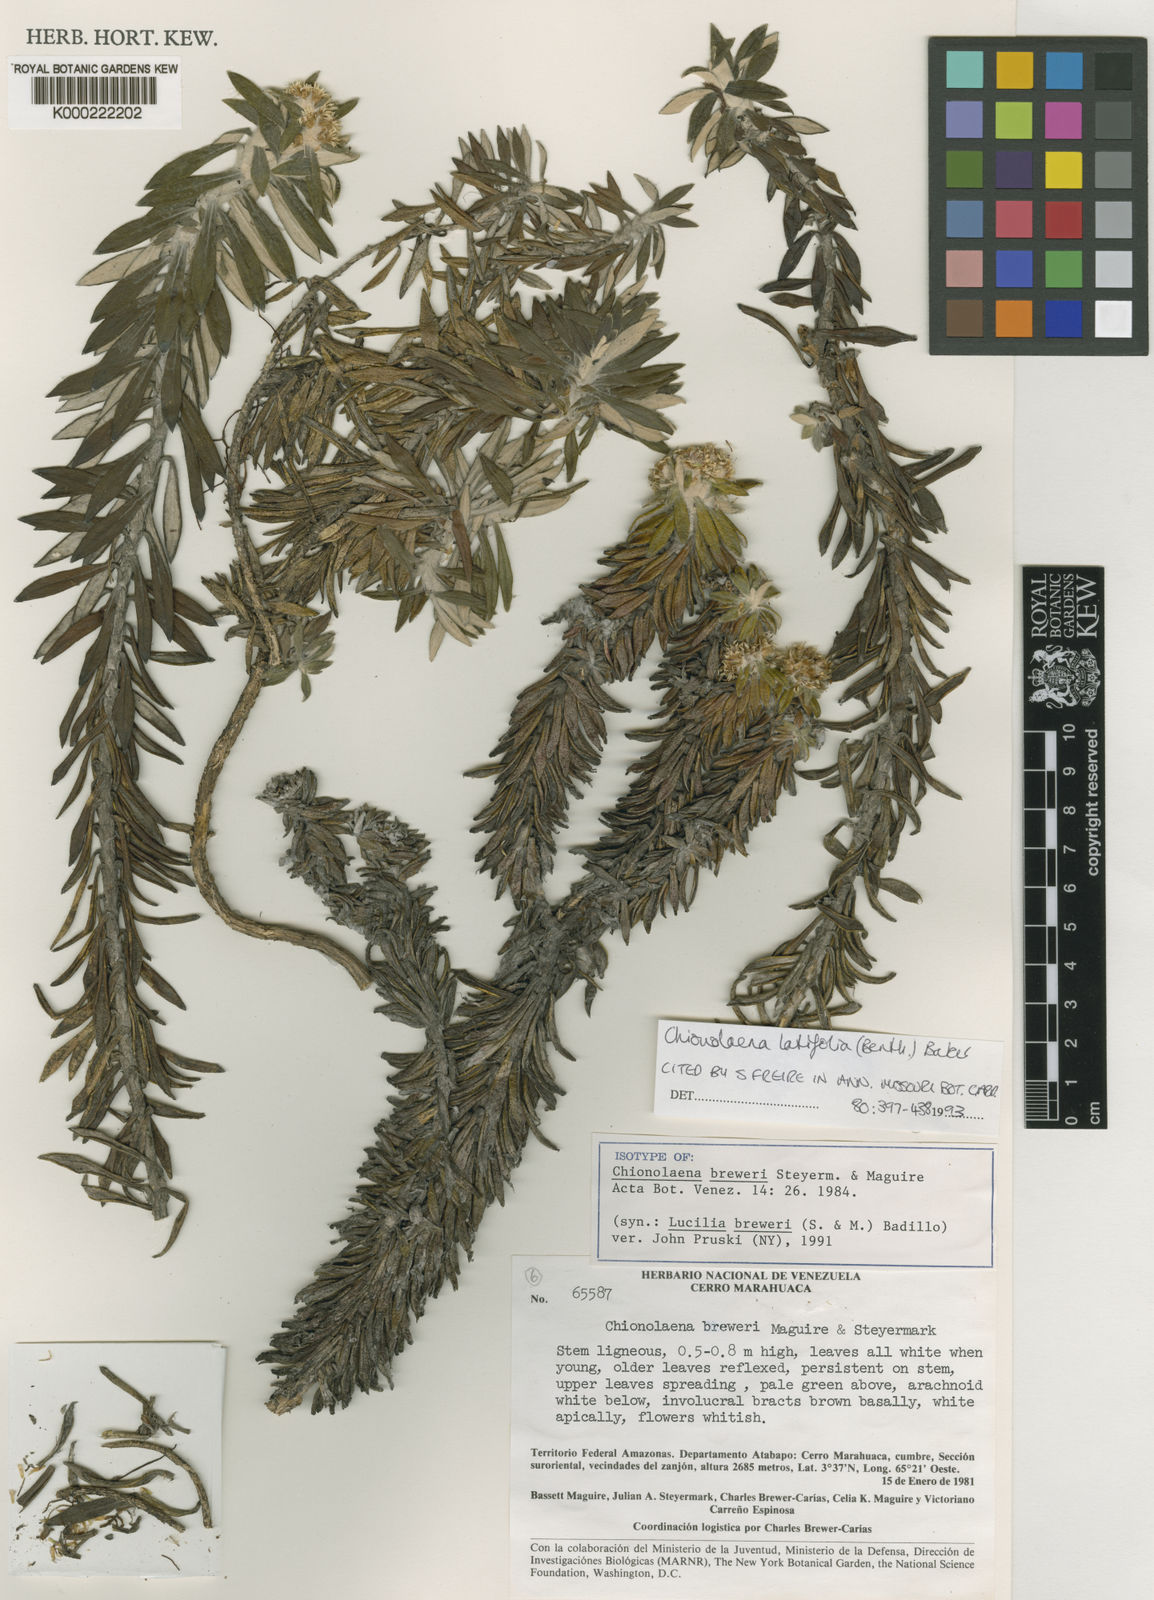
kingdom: Plantae
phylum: Tracheophyta
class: Magnoliopsida
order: Asterales
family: Asteraceae
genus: Chionolaena
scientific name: Chionolaena latifolia
